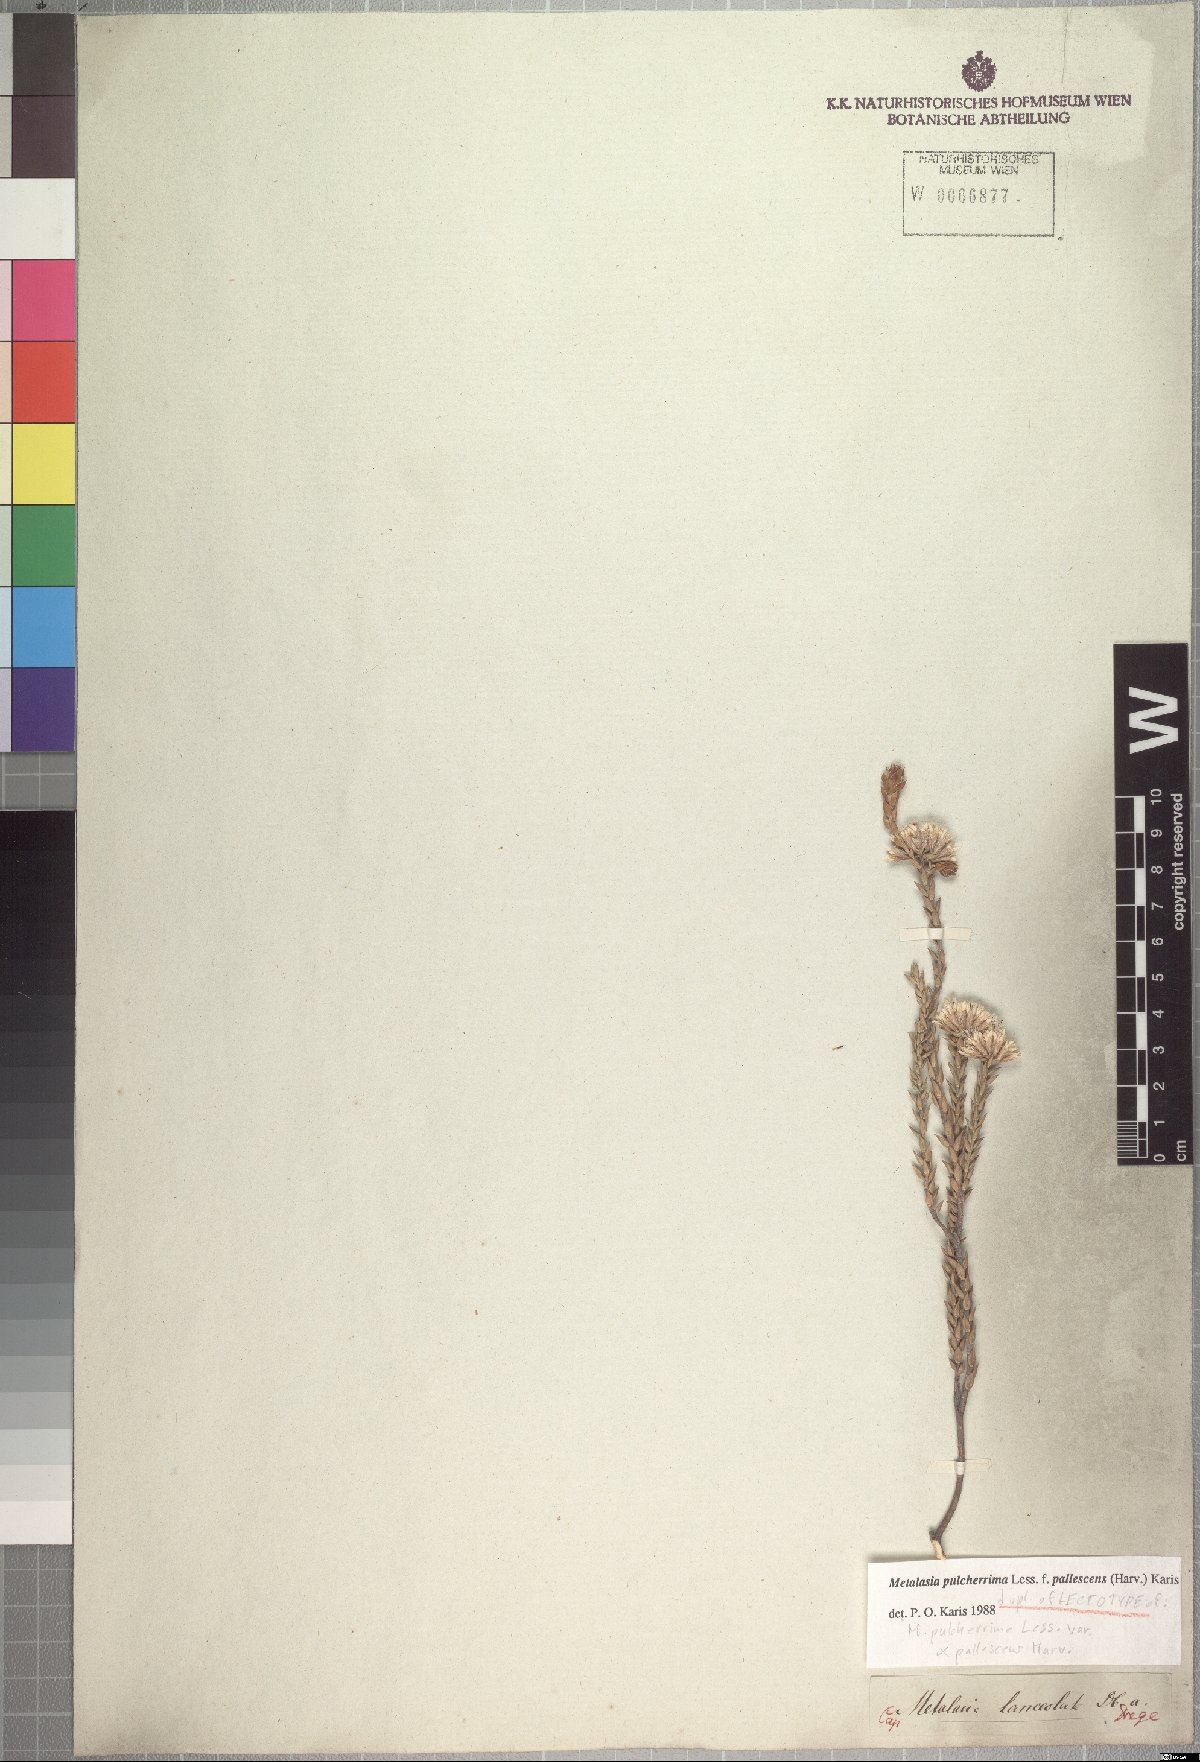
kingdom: Plantae
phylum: Tracheophyta
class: Magnoliopsida
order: Asterales
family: Asteraceae
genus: Metalasia
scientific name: Metalasia pulcherrima
